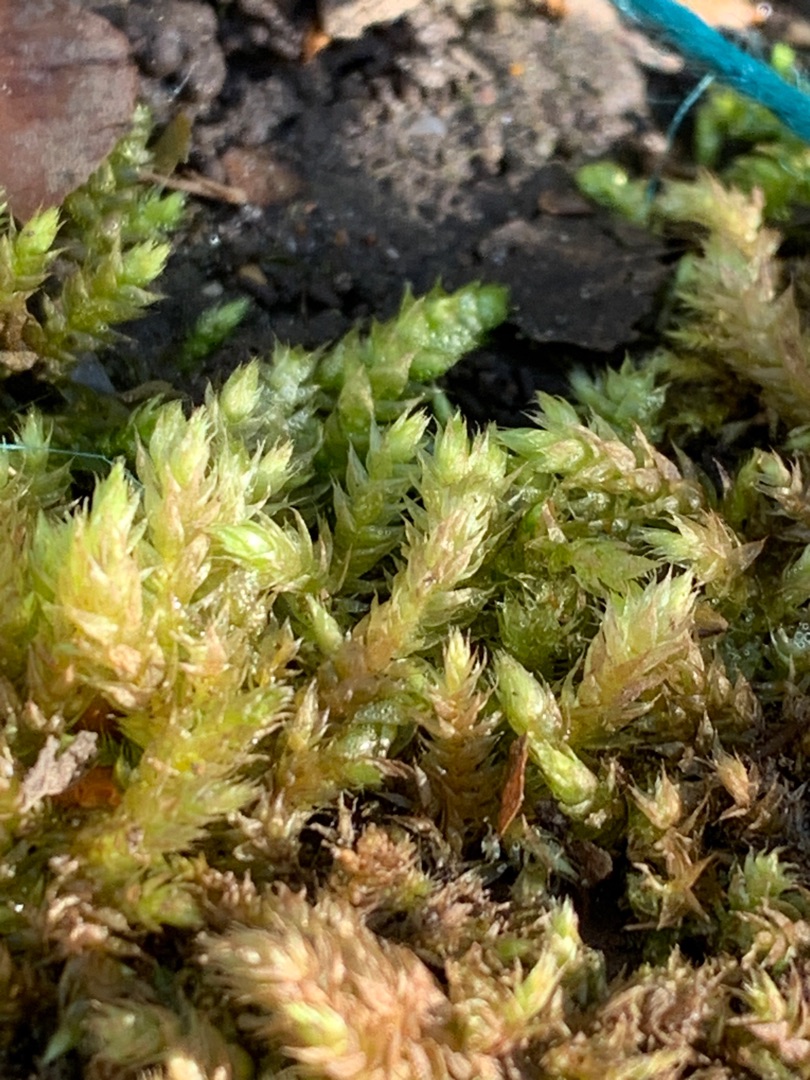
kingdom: Plantae
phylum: Bryophyta
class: Bryopsida
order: Hypnales
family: Brachytheciaceae
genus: Brachythecium
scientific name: Brachythecium rutabulum
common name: Almindelig kortkapsel
